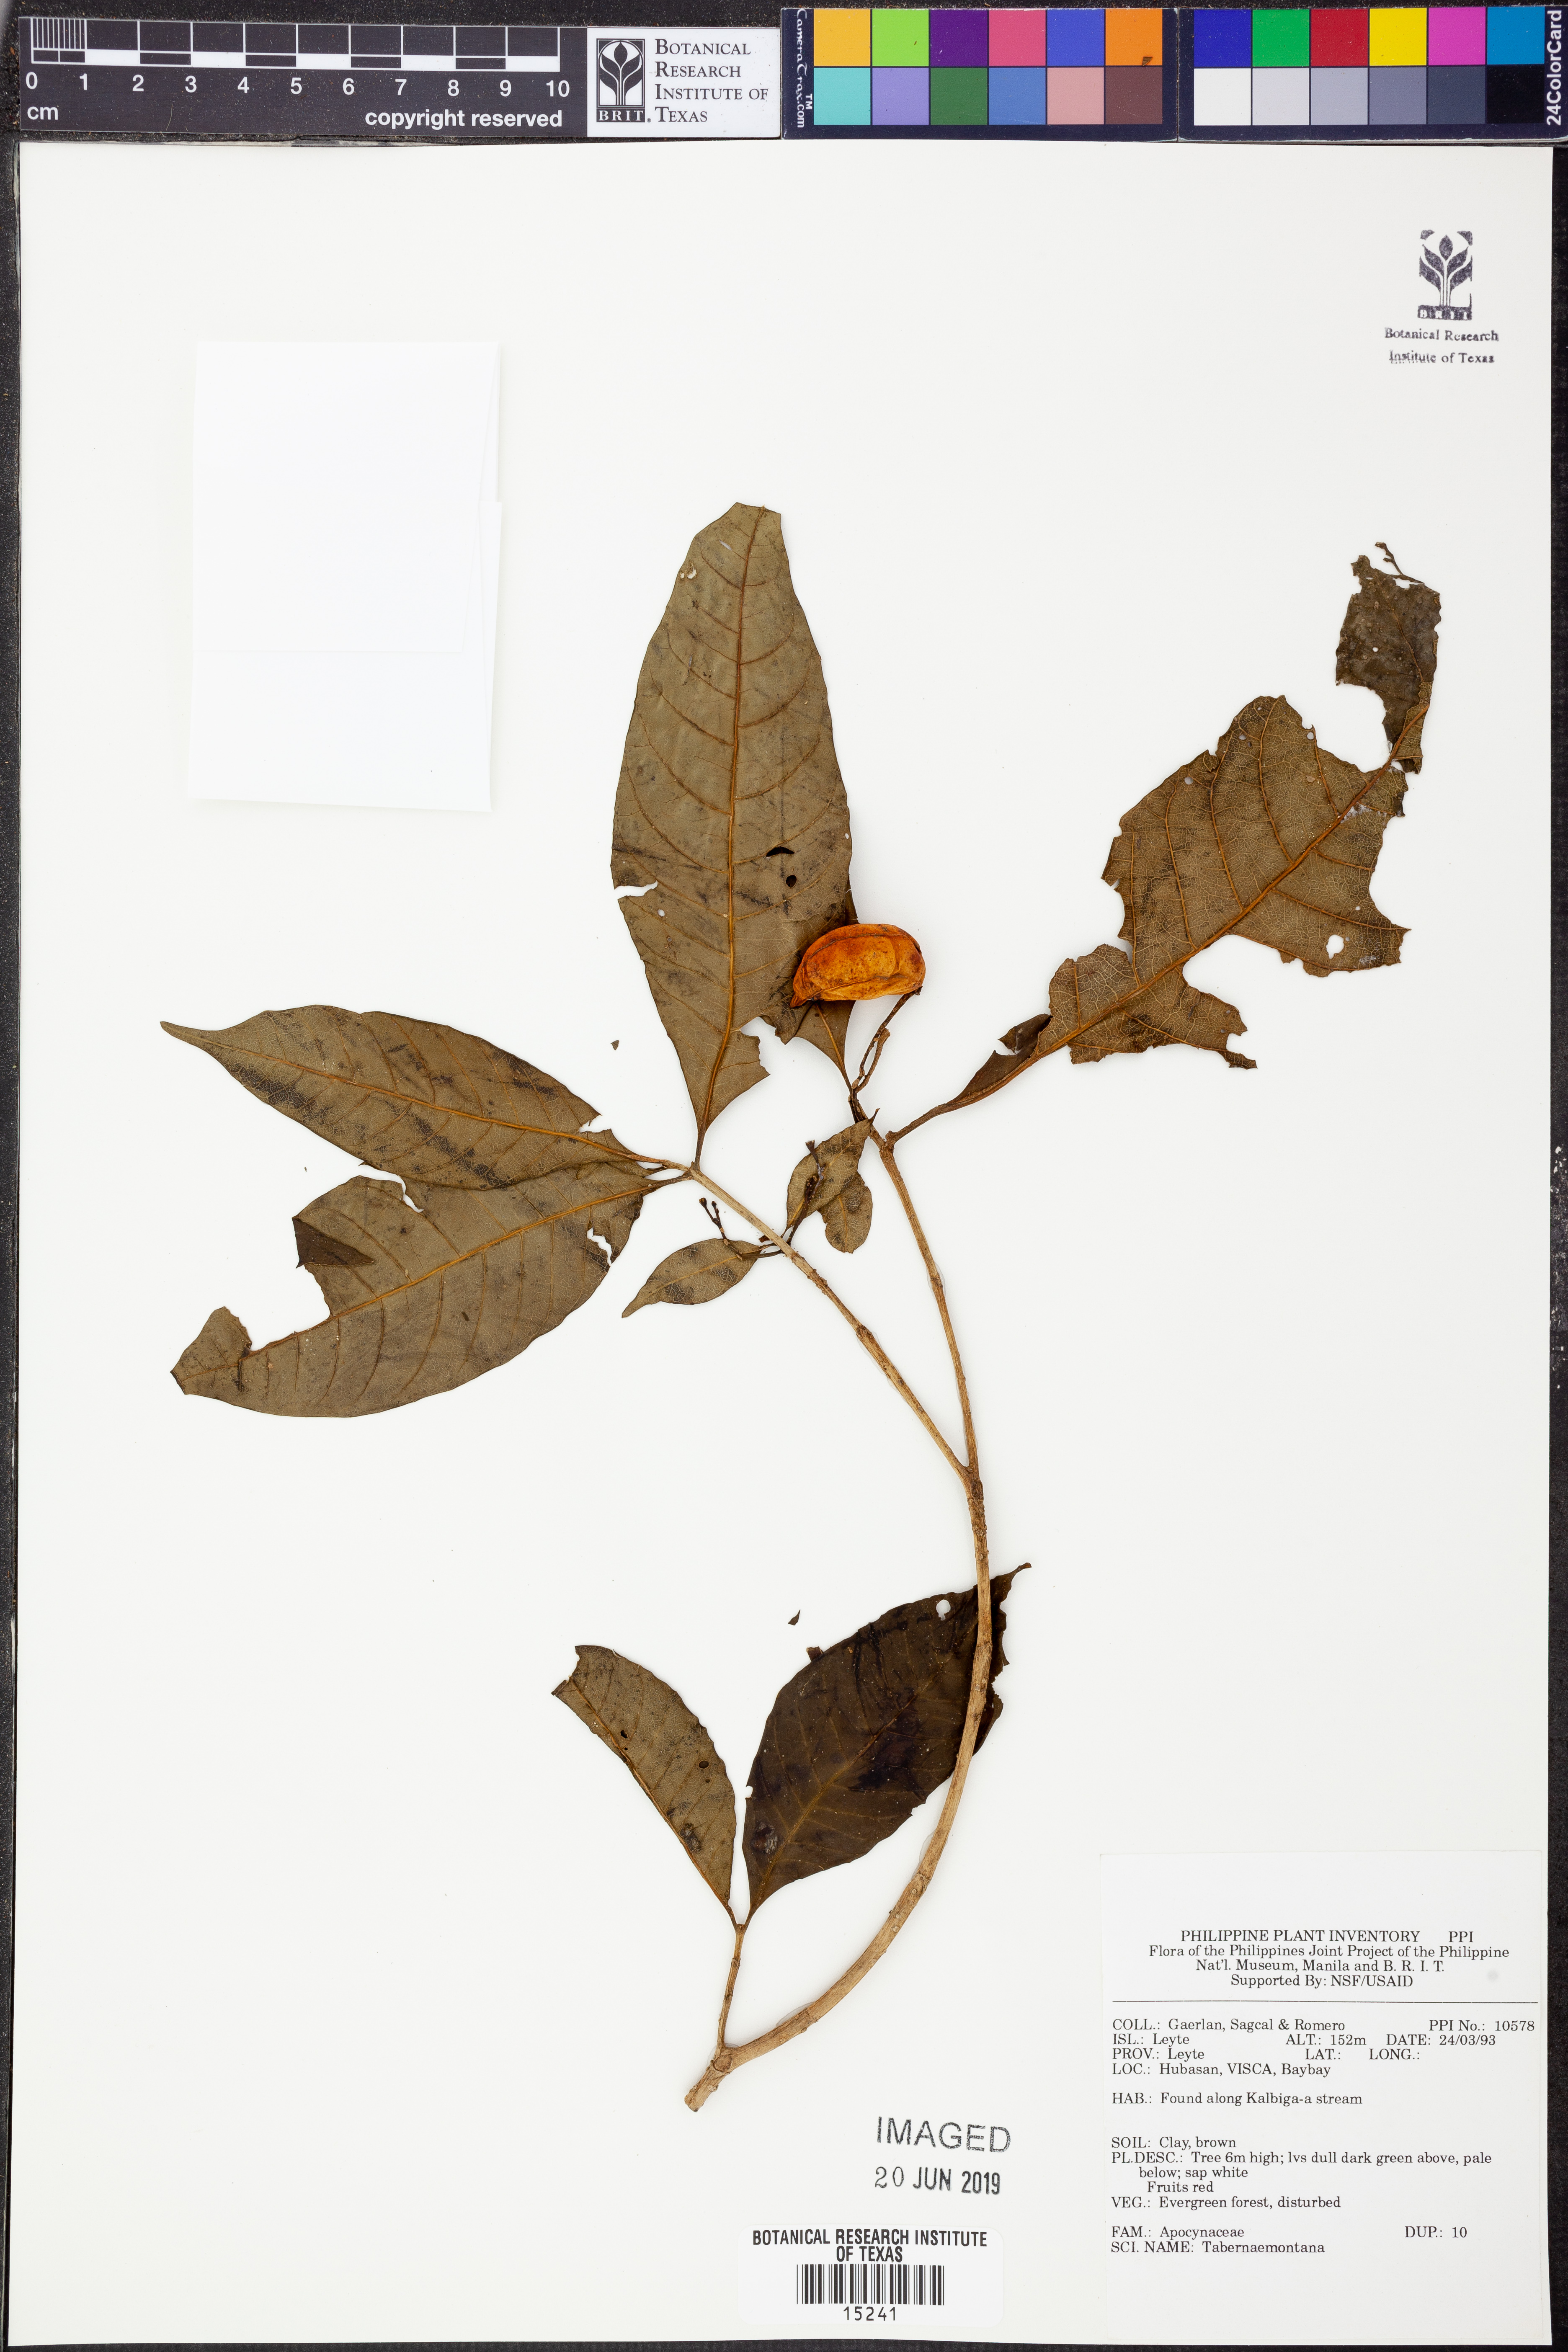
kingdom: Plantae
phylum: Tracheophyta
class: Magnoliopsida
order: Gentianales
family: Apocynaceae
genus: Tabernaemontana
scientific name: Tabernaemontana
